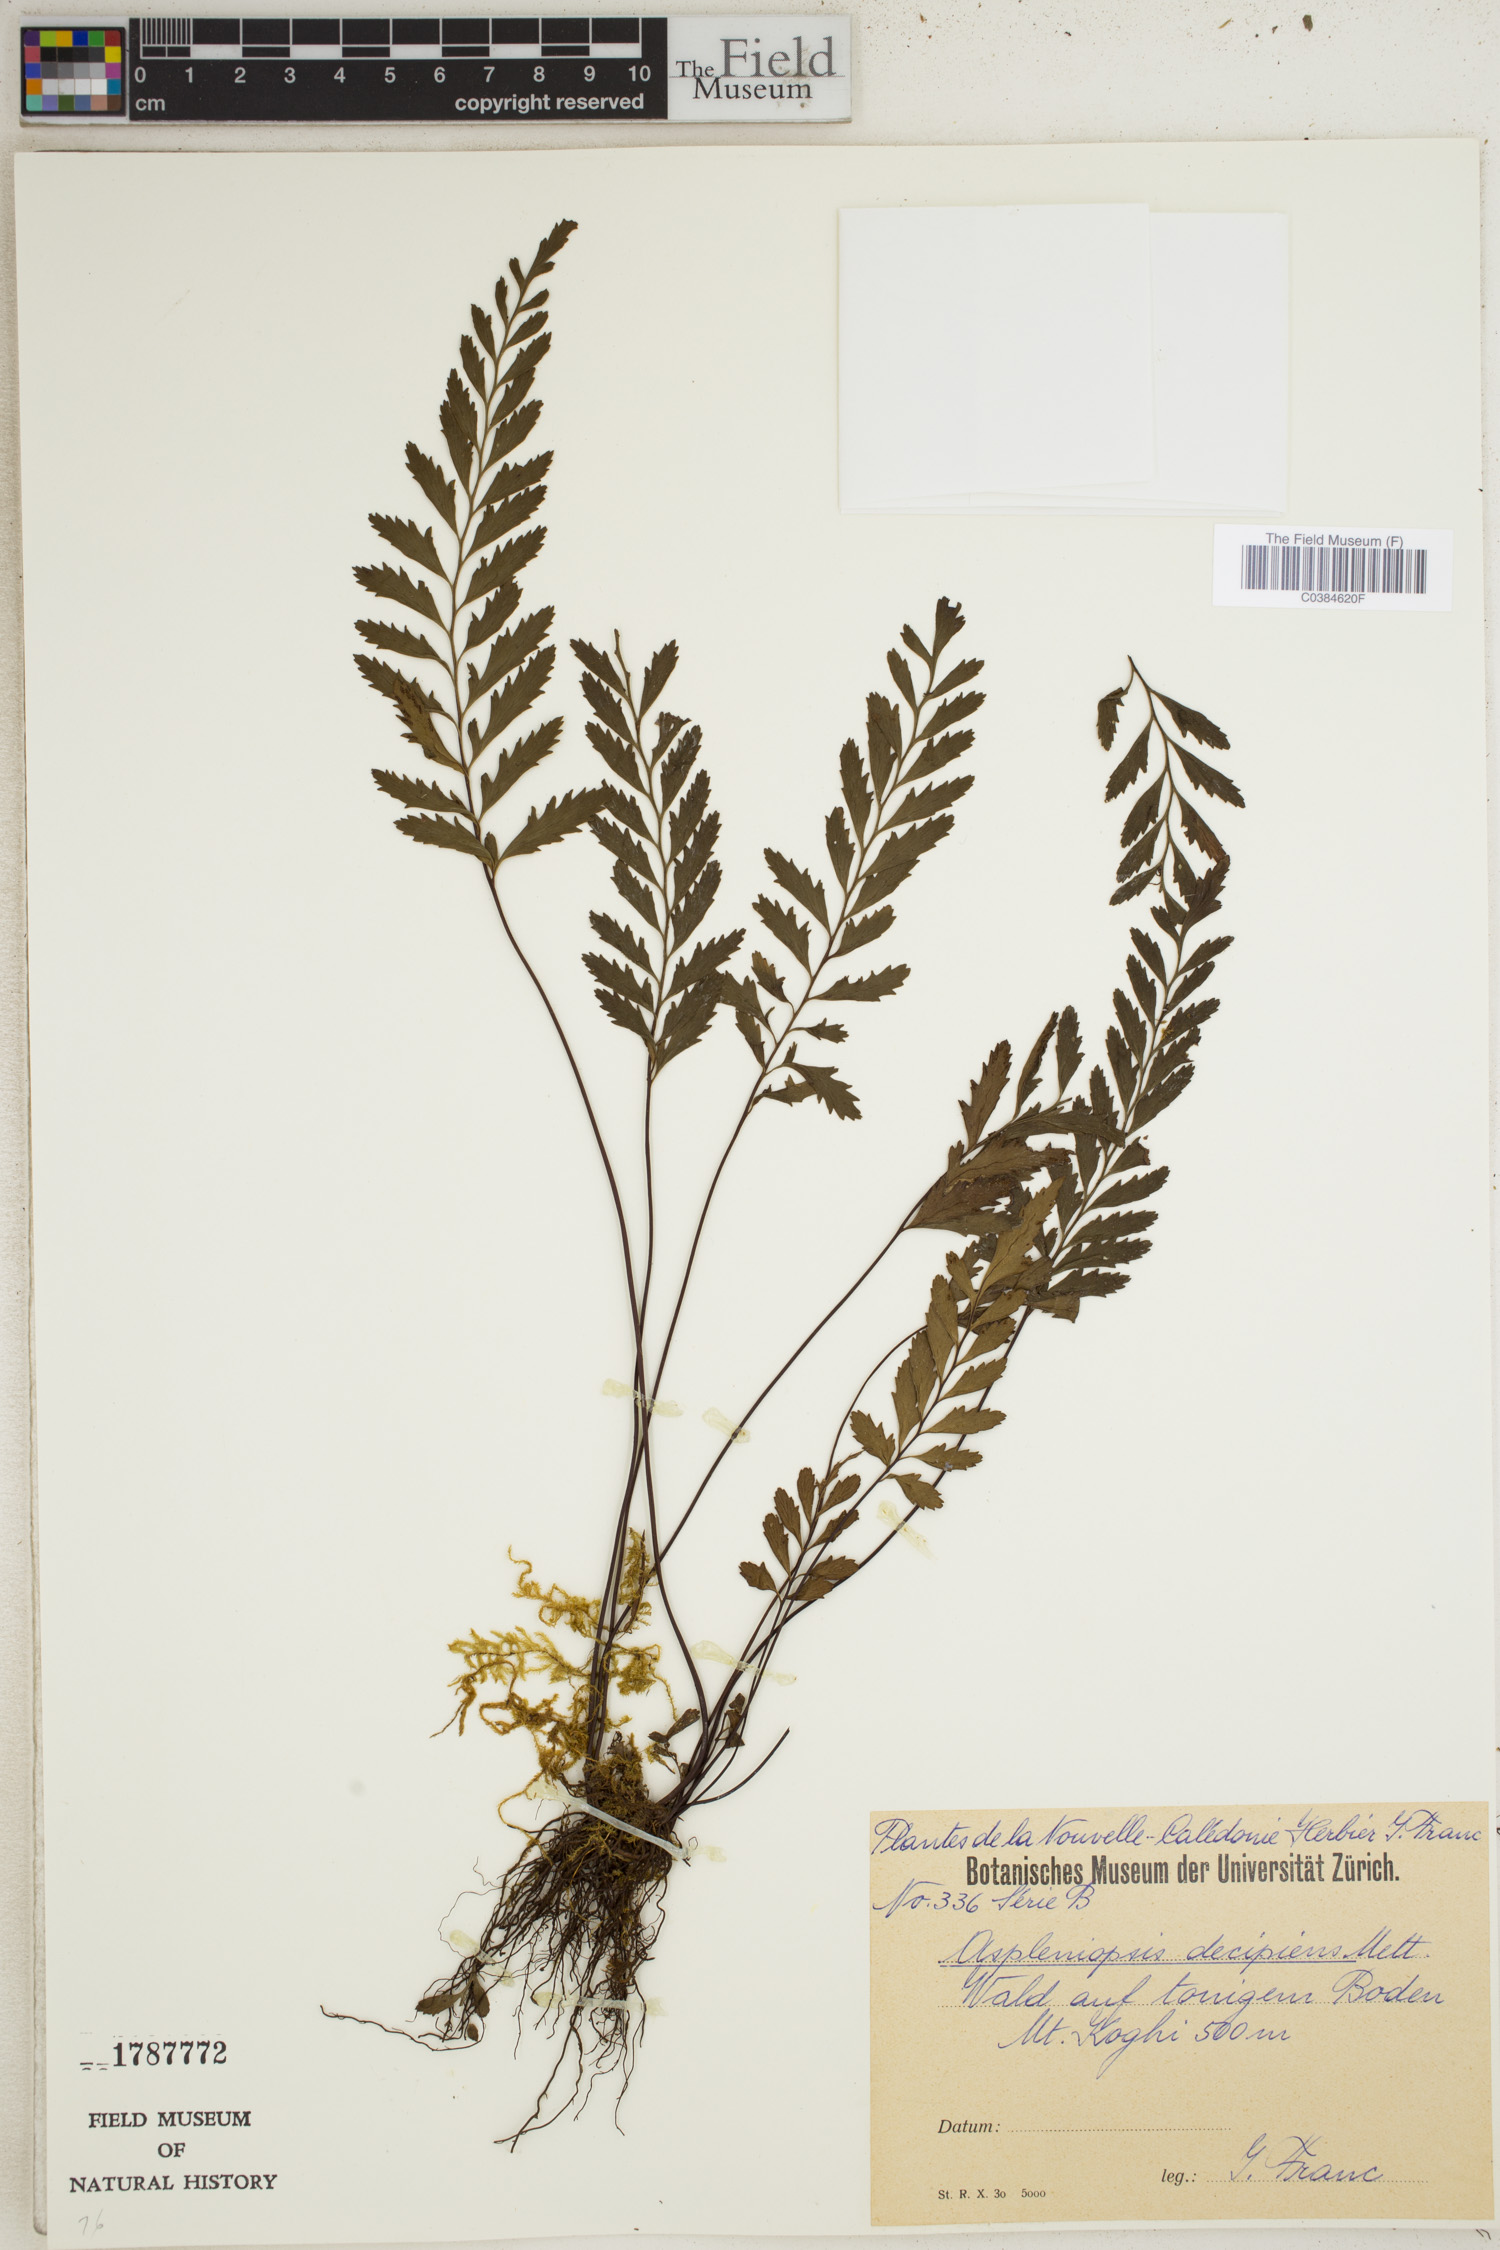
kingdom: Plantae
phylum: Tracheophyta
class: Polypodiopsida
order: Polypodiales
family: Pteridaceae
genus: Austrogramme
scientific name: Austrogramme decipiens
